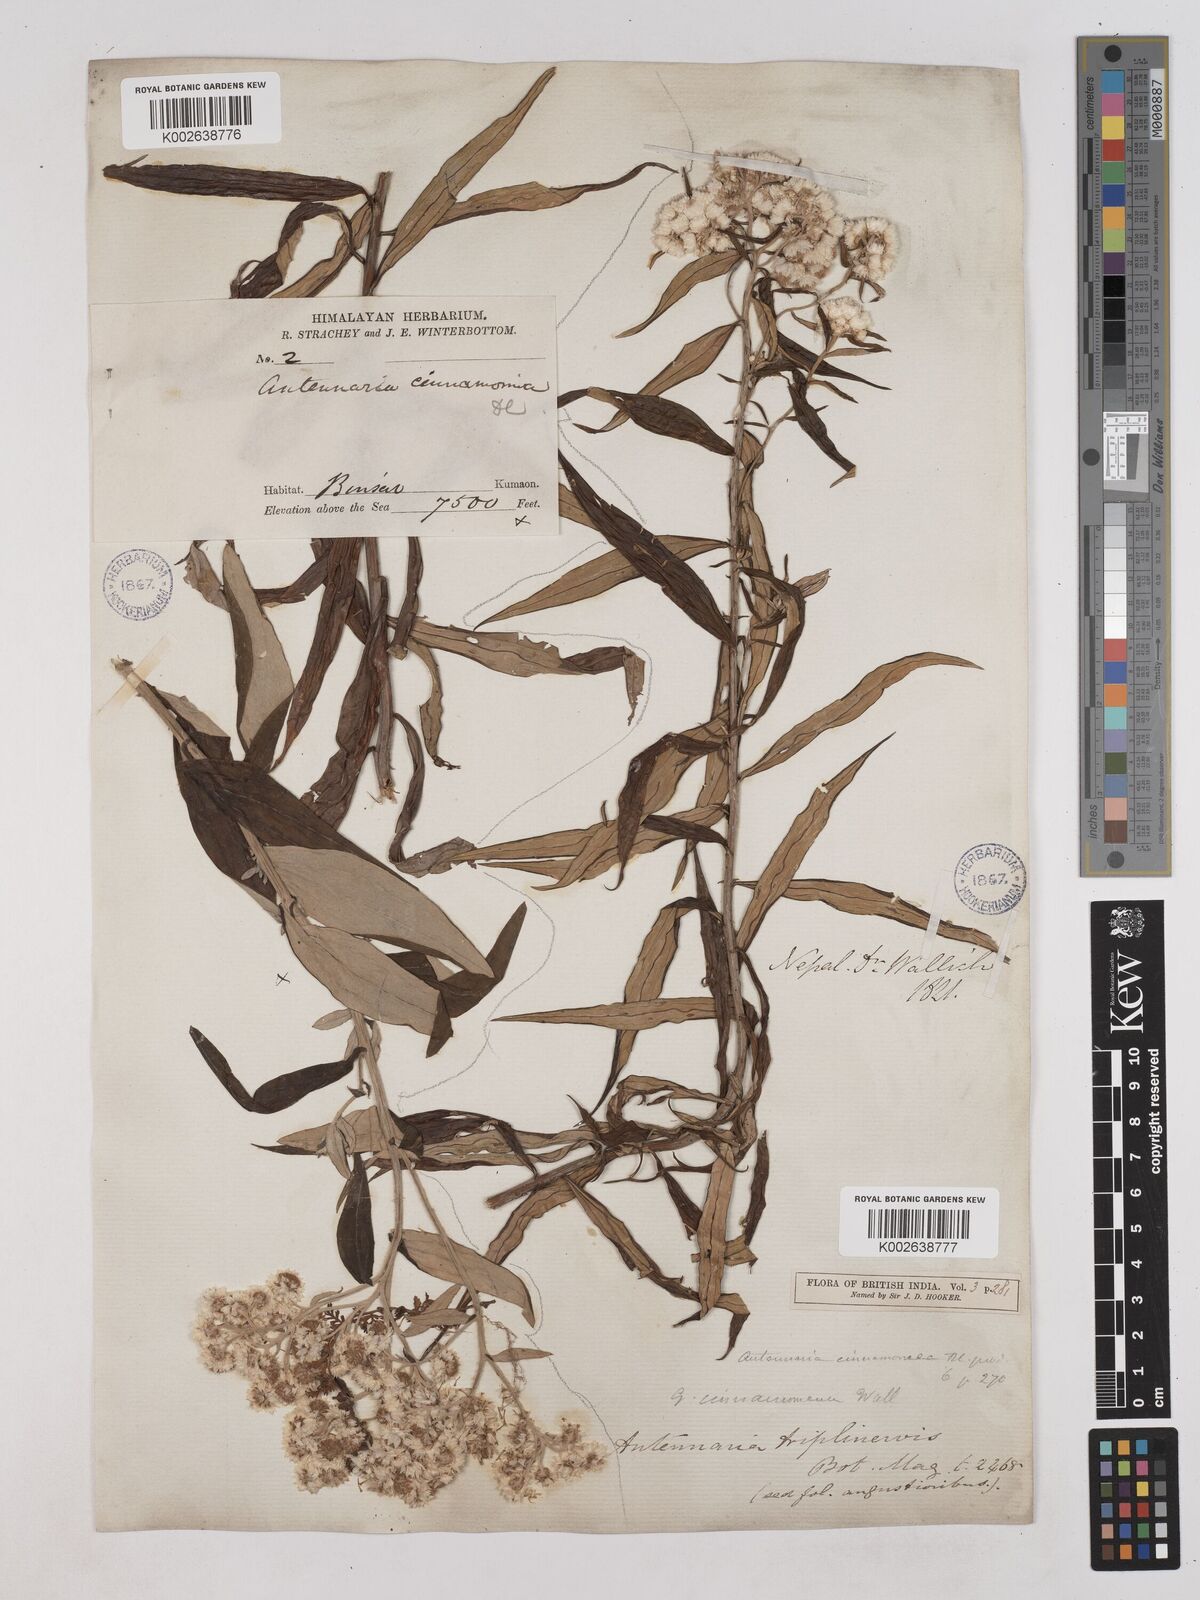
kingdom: Plantae
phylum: Tracheophyta
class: Magnoliopsida
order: Asterales
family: Asteraceae
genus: Anaphalis
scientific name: Anaphalis marcescens
